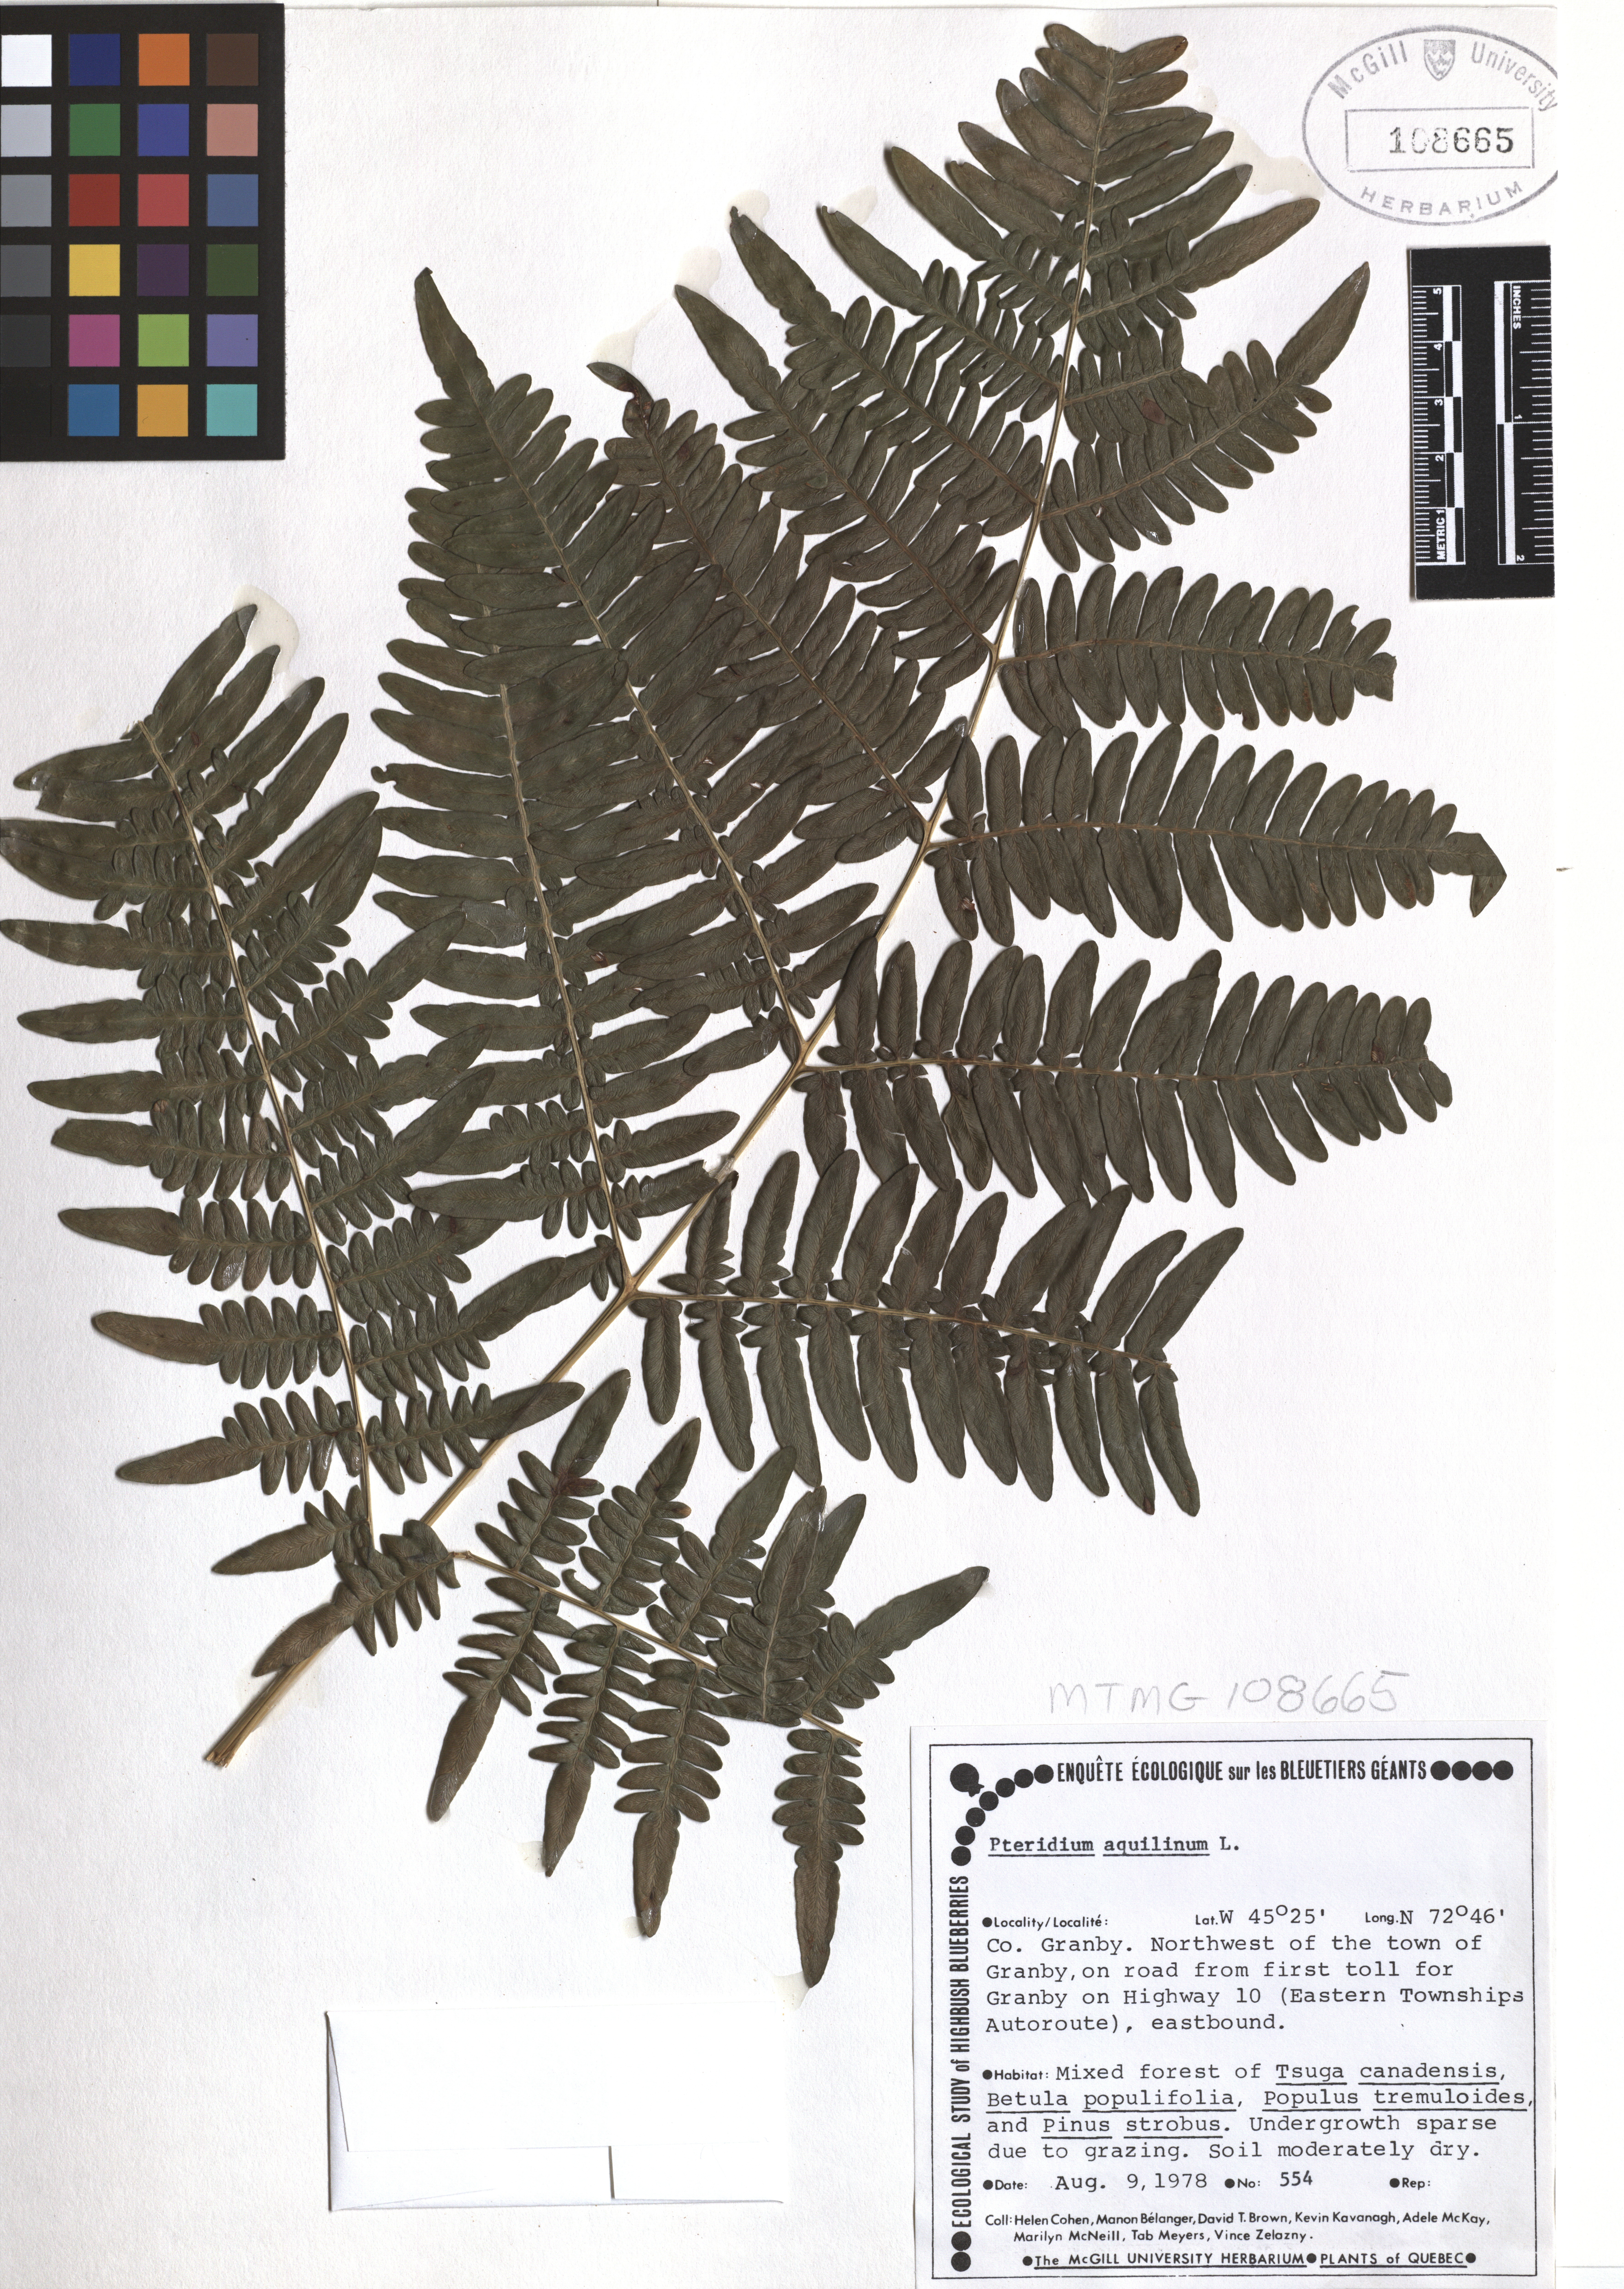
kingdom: Plantae
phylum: Tracheophyta
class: Polypodiopsida
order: Polypodiales
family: Dennstaedtiaceae
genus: Pteridium
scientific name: Pteridium aquilinum
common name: Bracken
